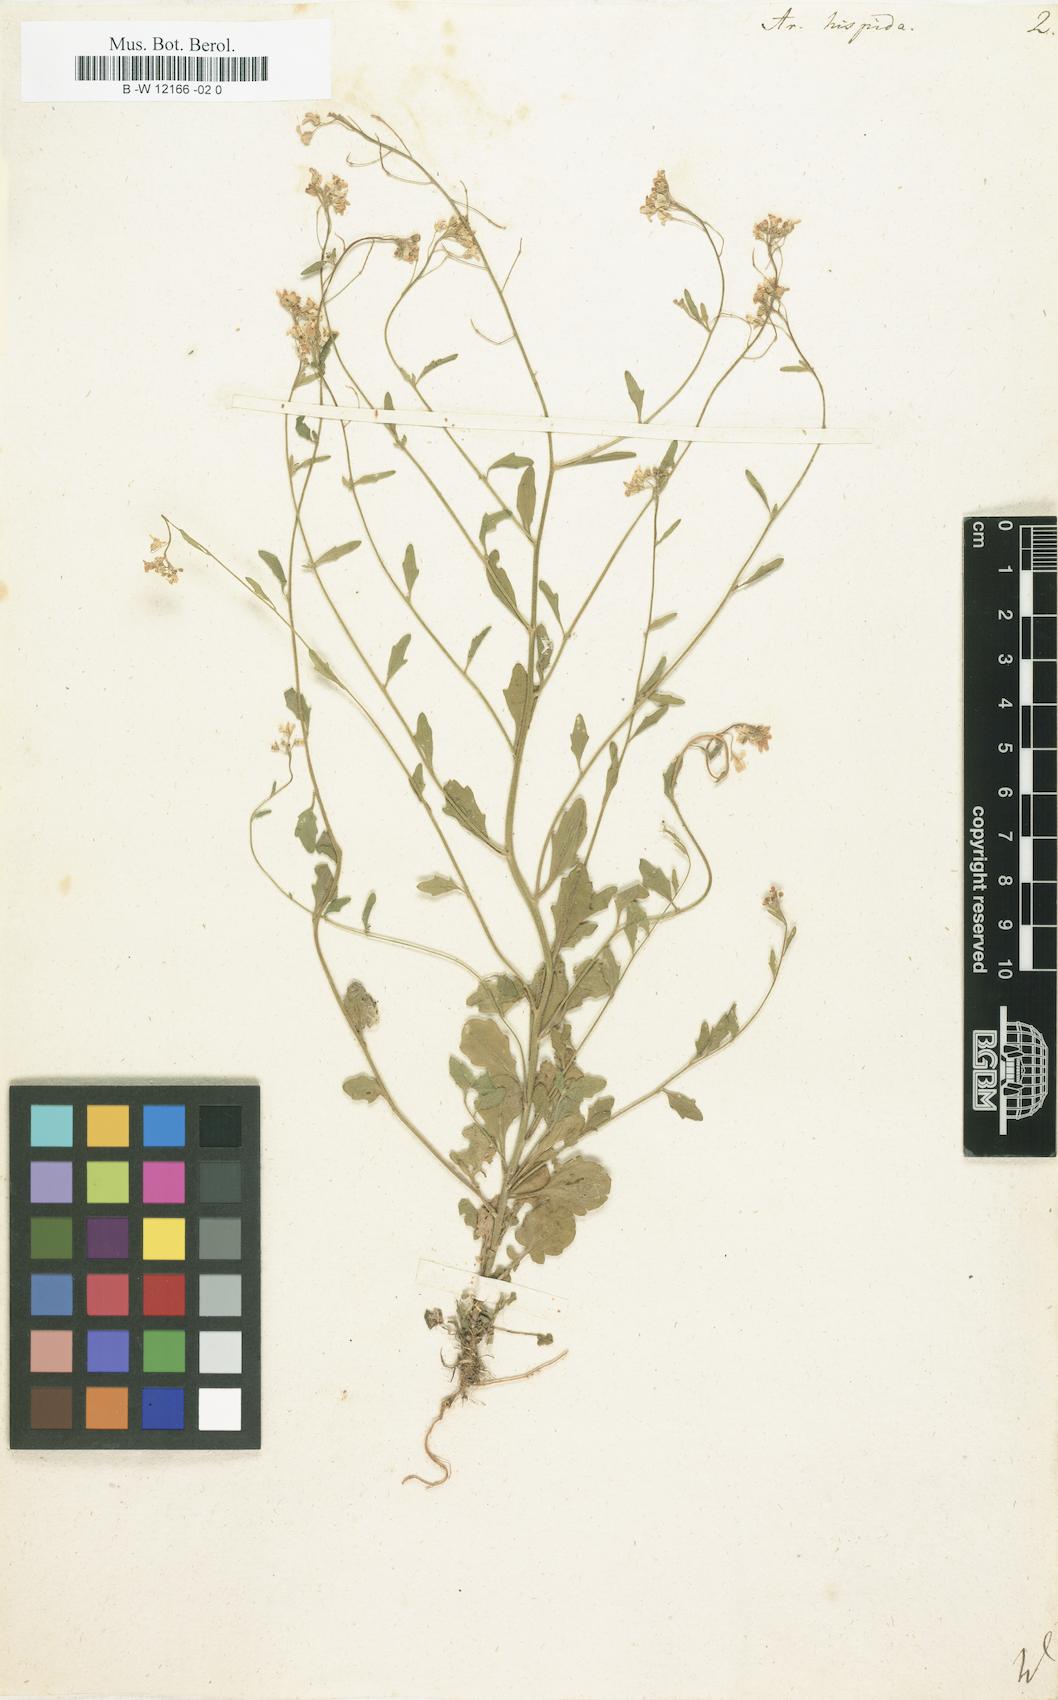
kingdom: Plantae
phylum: Tracheophyta
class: Magnoliopsida
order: Brassicales
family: Brassicaceae
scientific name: Brassicaceae
